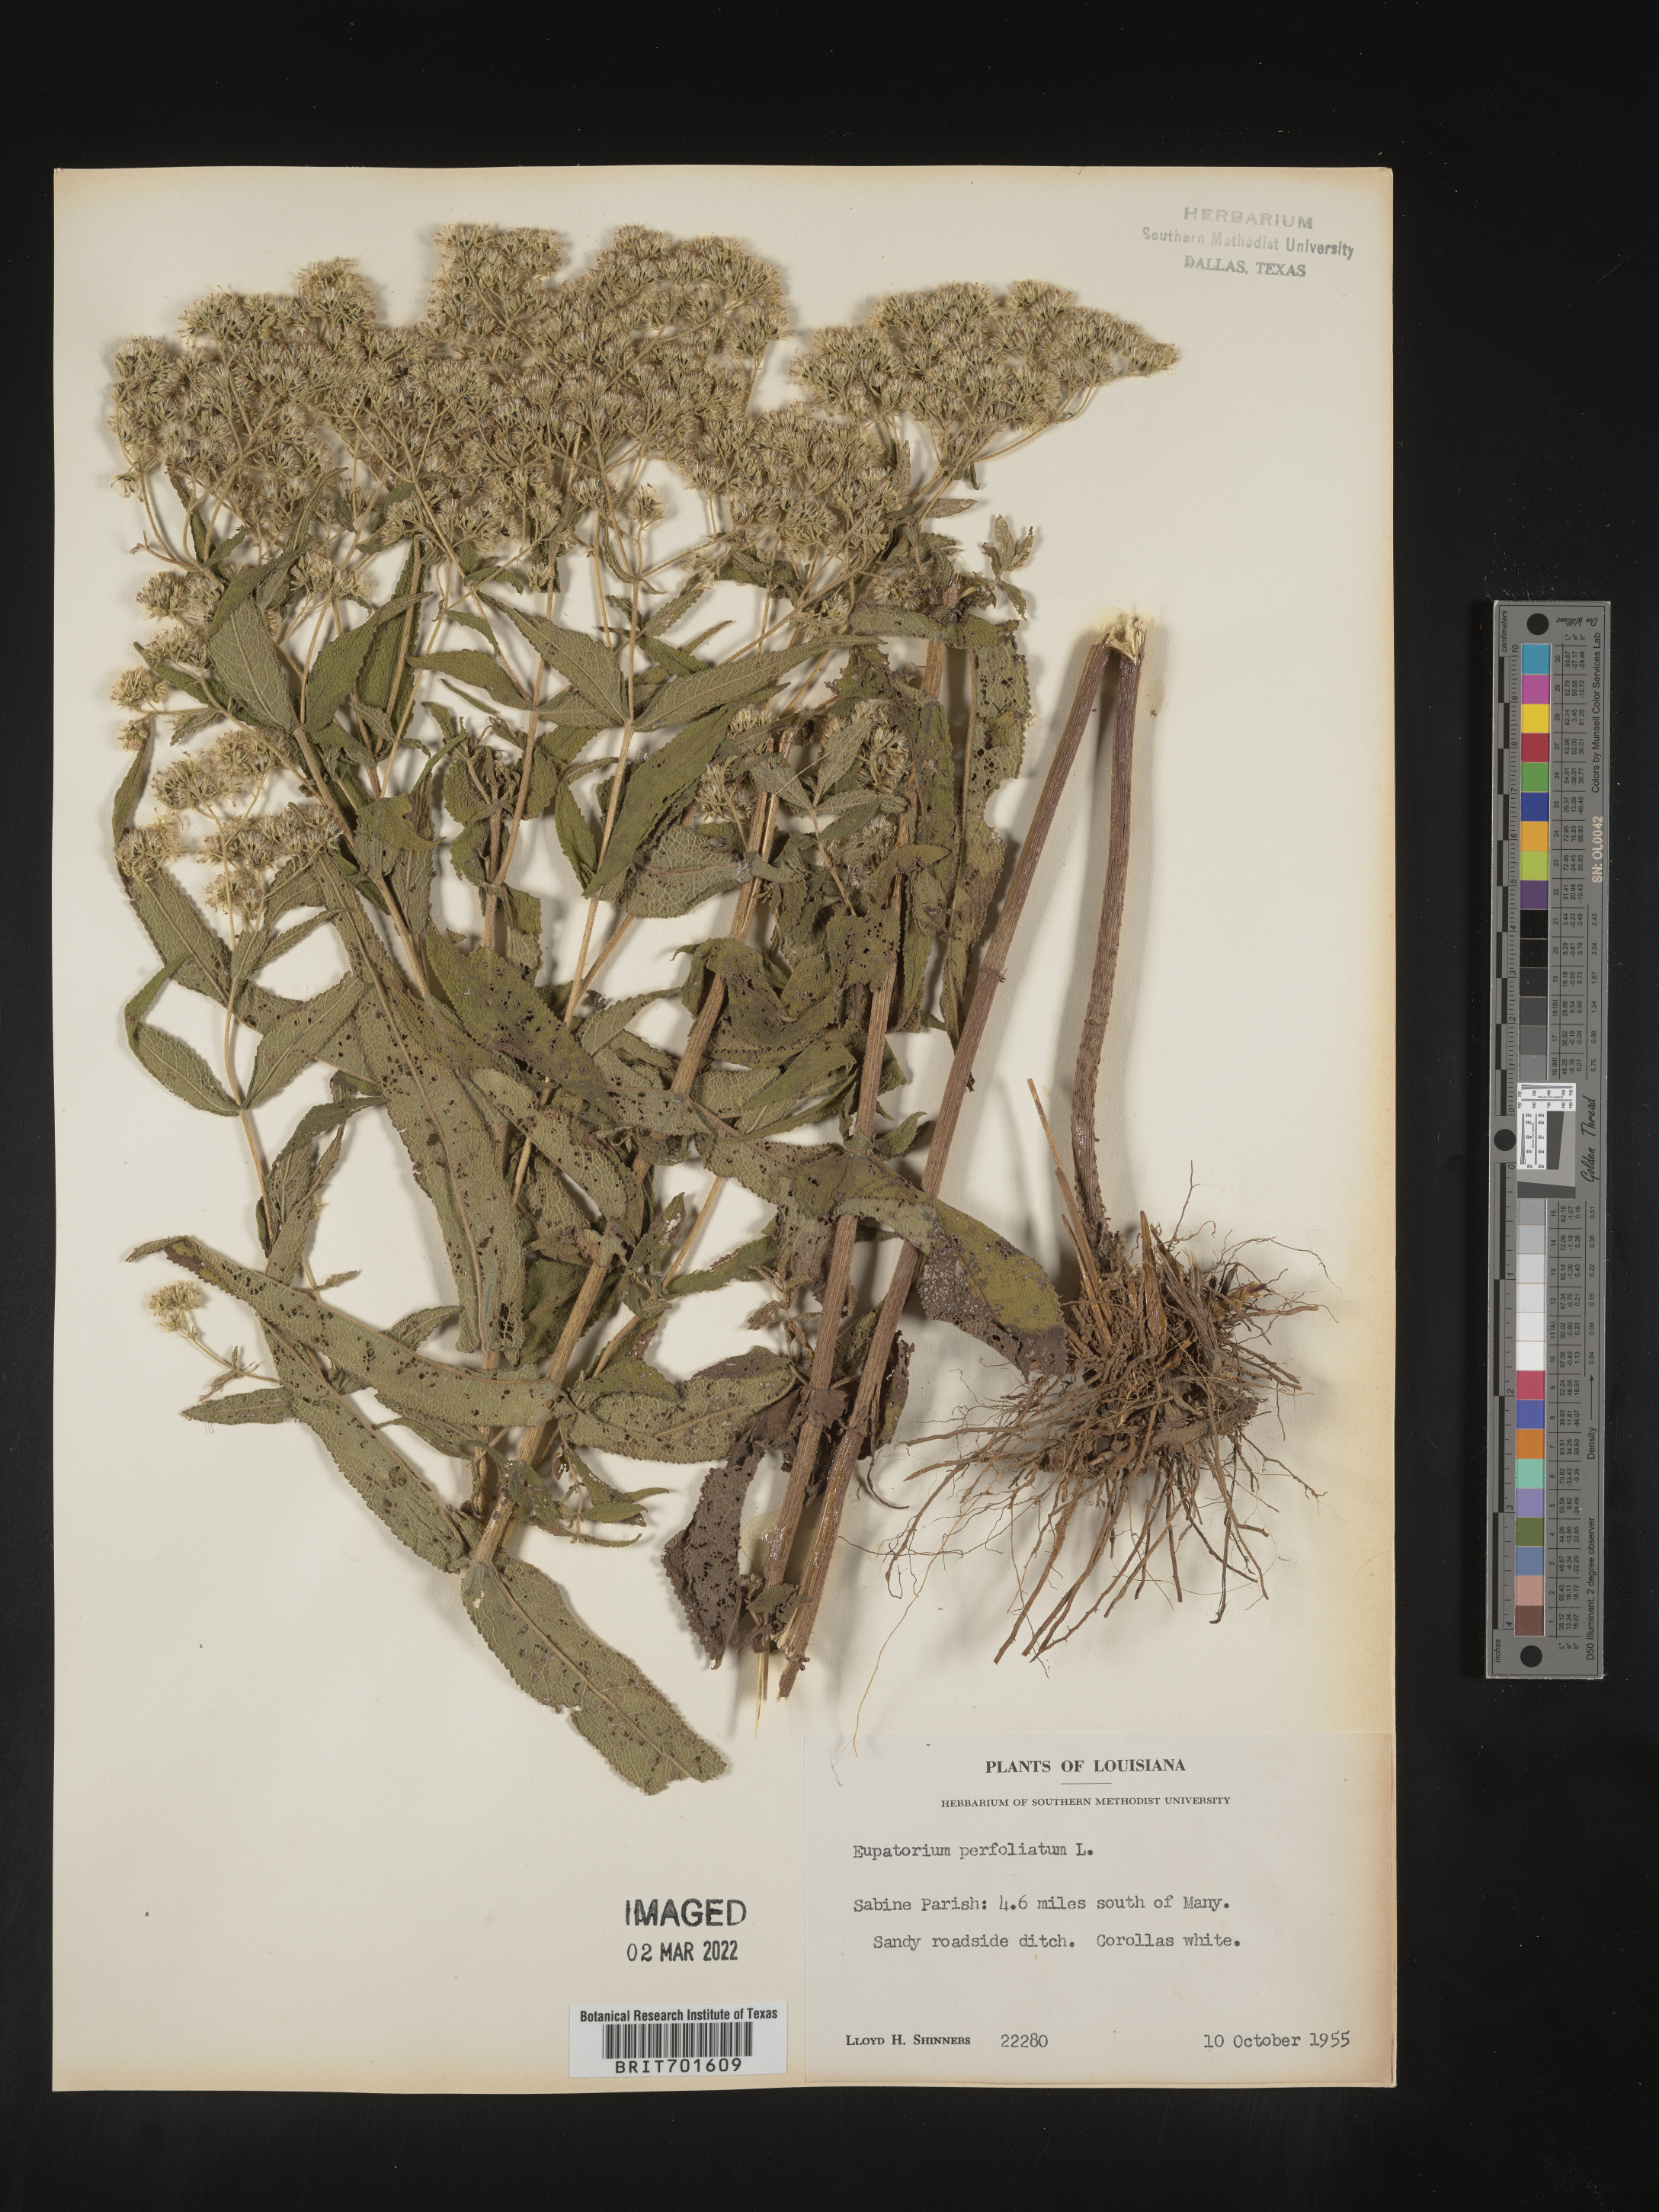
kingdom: Plantae
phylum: Tracheophyta
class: Magnoliopsida
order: Asterales
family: Asteraceae
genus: Eupatorium
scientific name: Eupatorium perfoliatum
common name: Boneset
